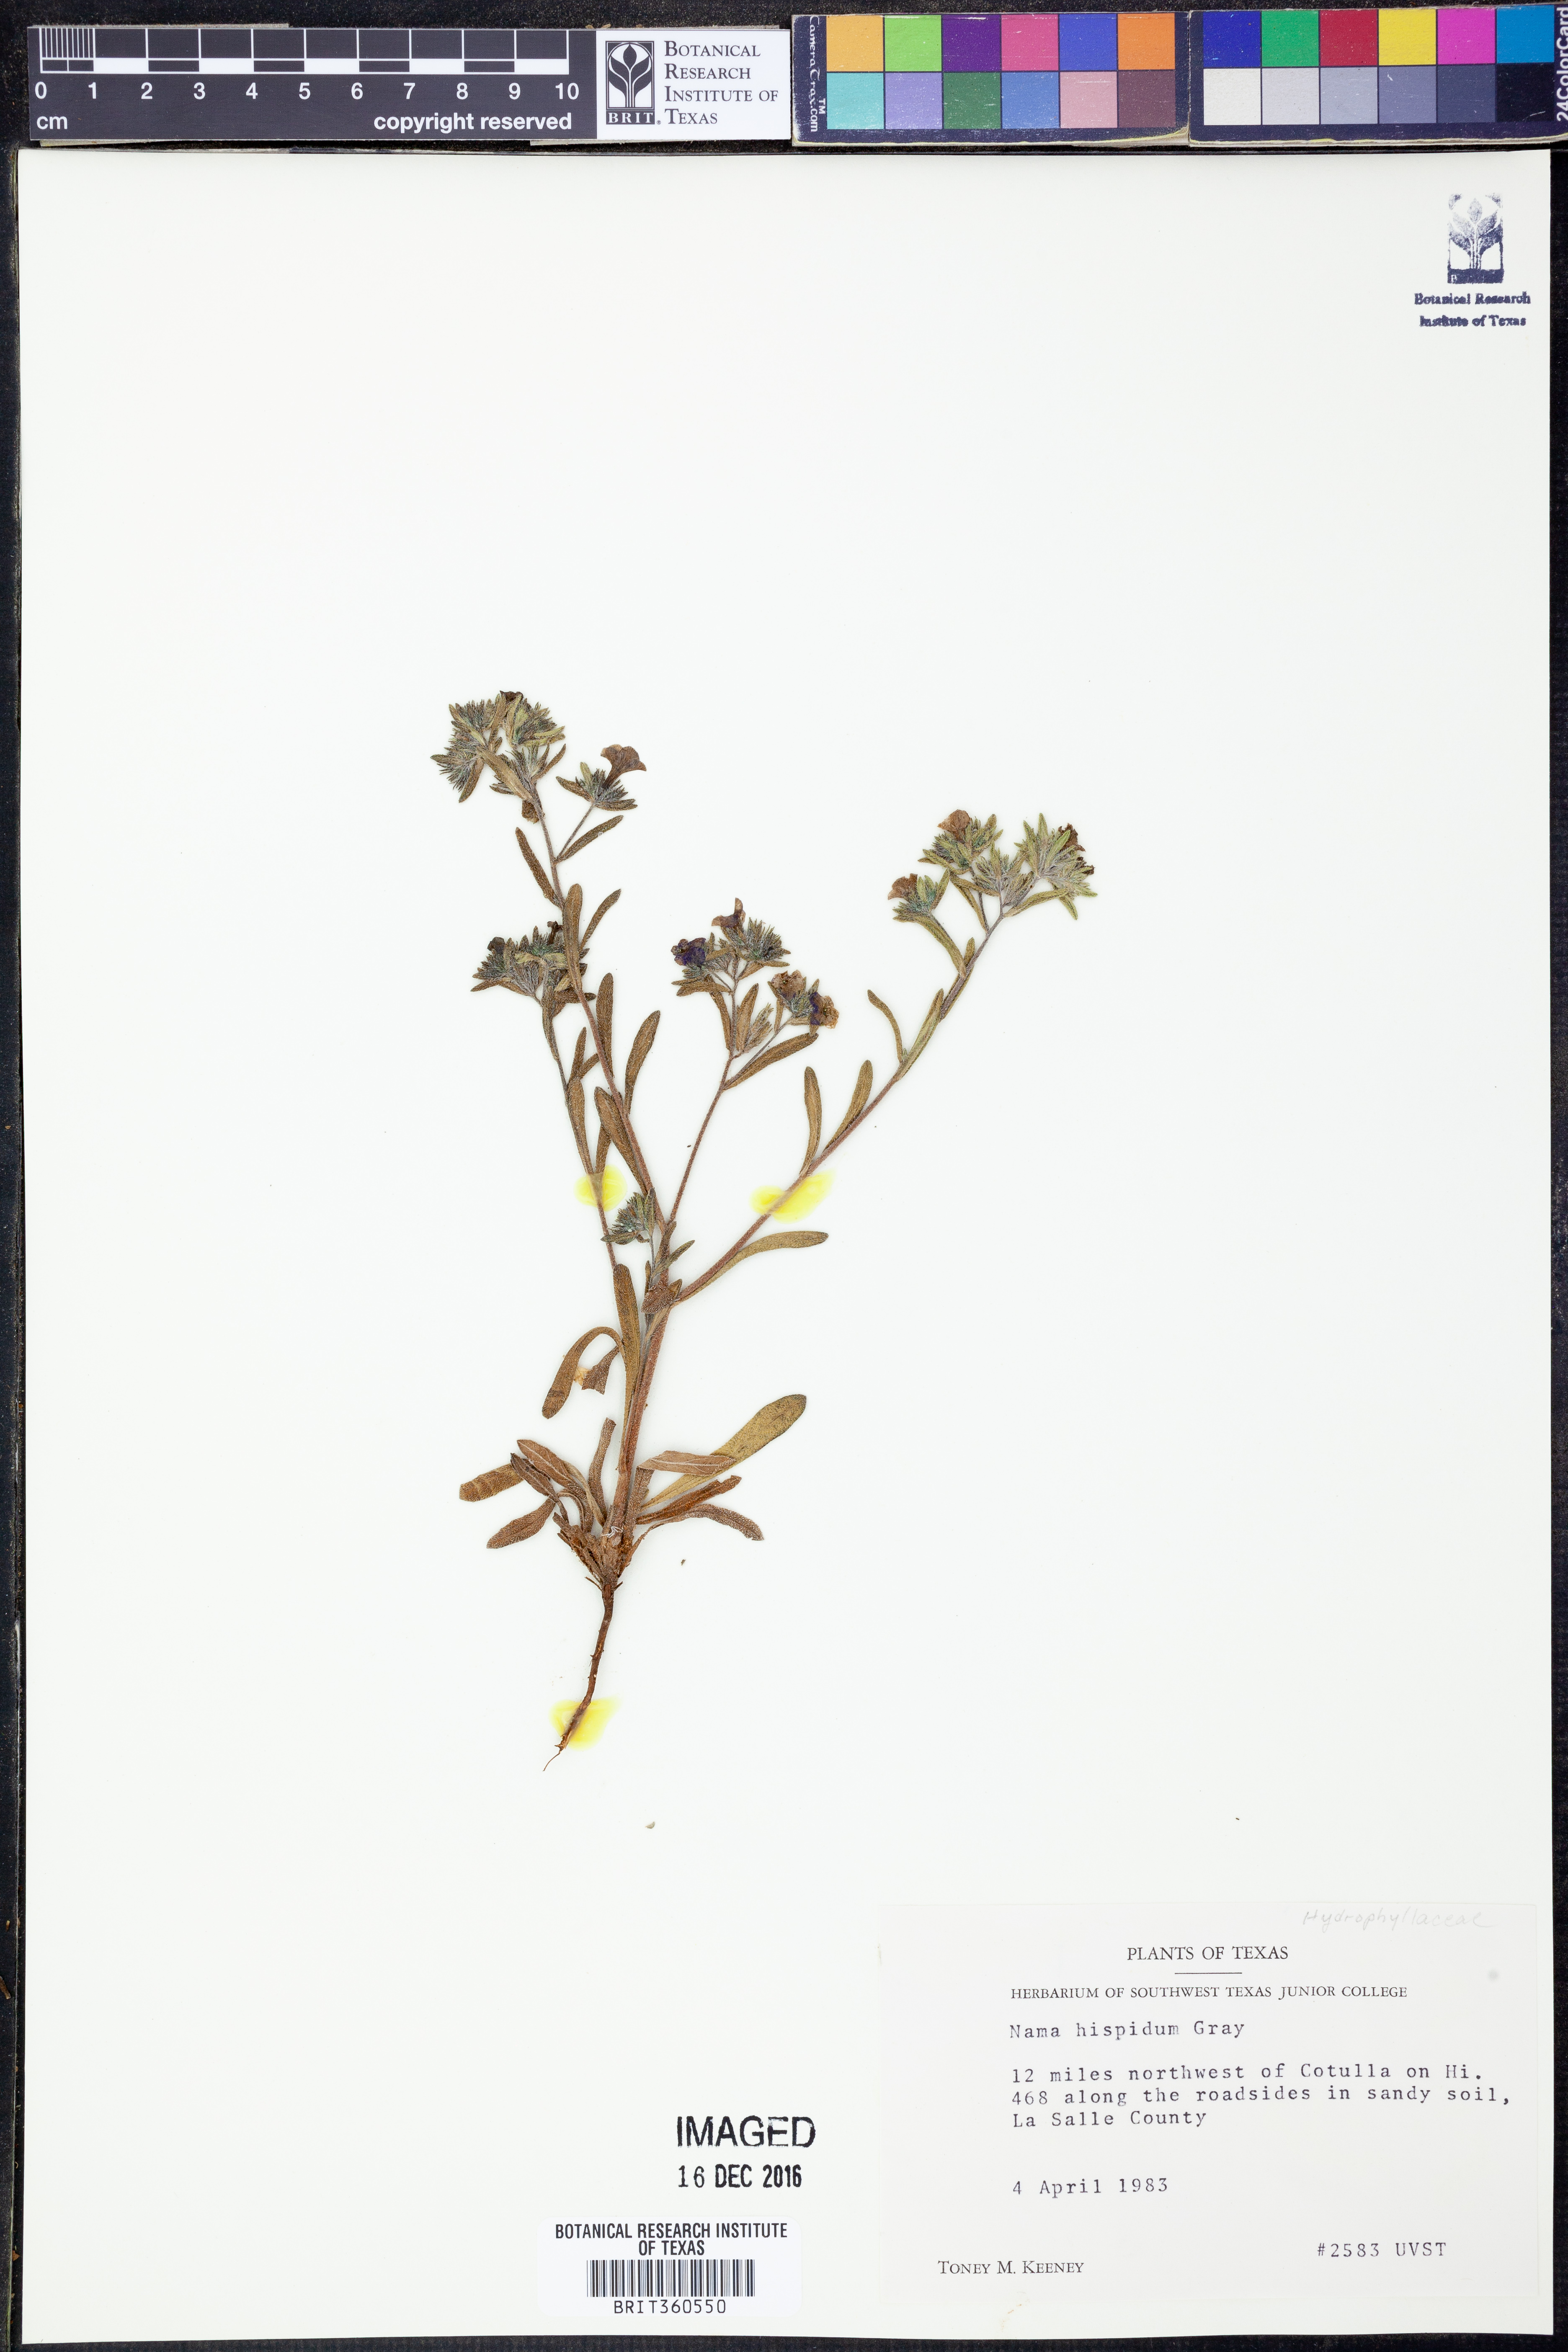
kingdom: Plantae
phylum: Tracheophyta
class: Magnoliopsida
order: Boraginales
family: Namaceae
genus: Nama
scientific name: Nama hispida
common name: Bristly nama
